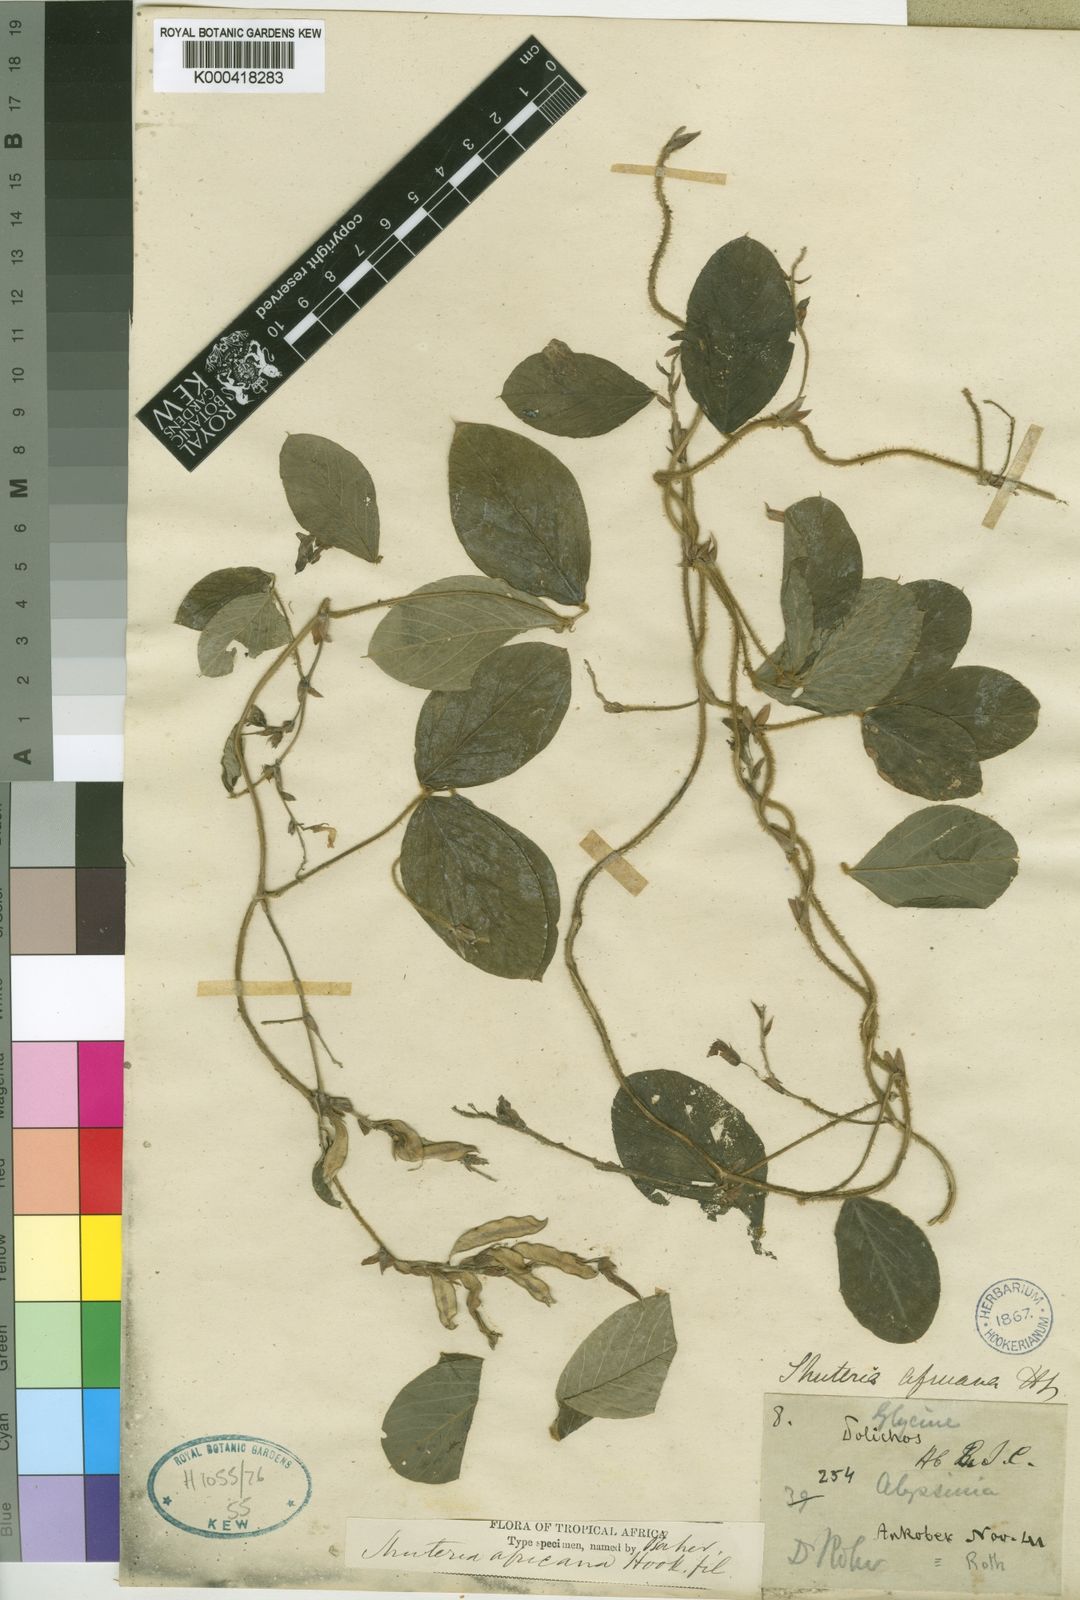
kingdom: Plantae
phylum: Tracheophyta
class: Magnoliopsida
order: Fabales
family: Fabaceae
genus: Afroamphica
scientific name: Afroamphica africana
